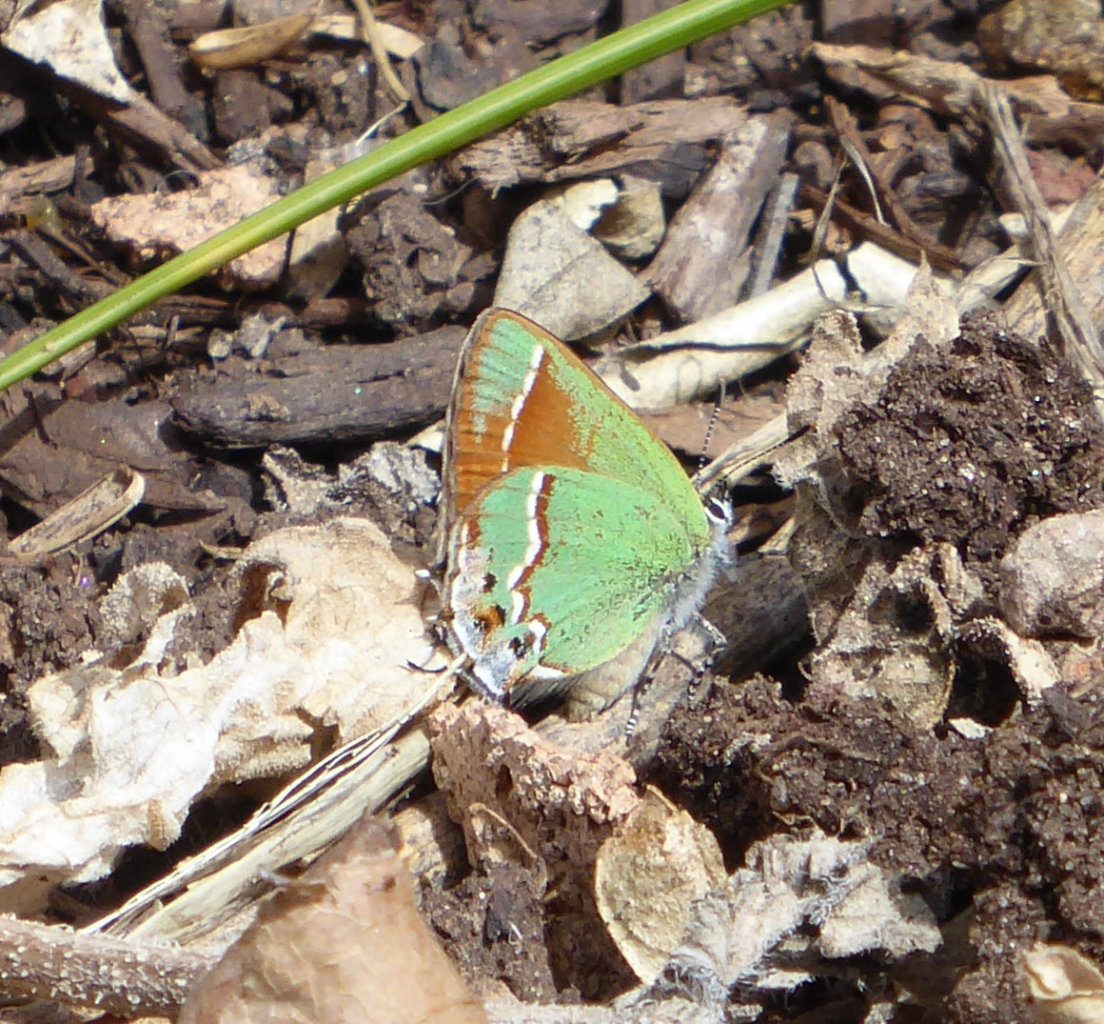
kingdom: Animalia
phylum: Arthropoda
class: Insecta
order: Lepidoptera
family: Lycaenidae
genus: Mitoura
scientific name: Mitoura gryneus
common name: Juniper Hairstreak
